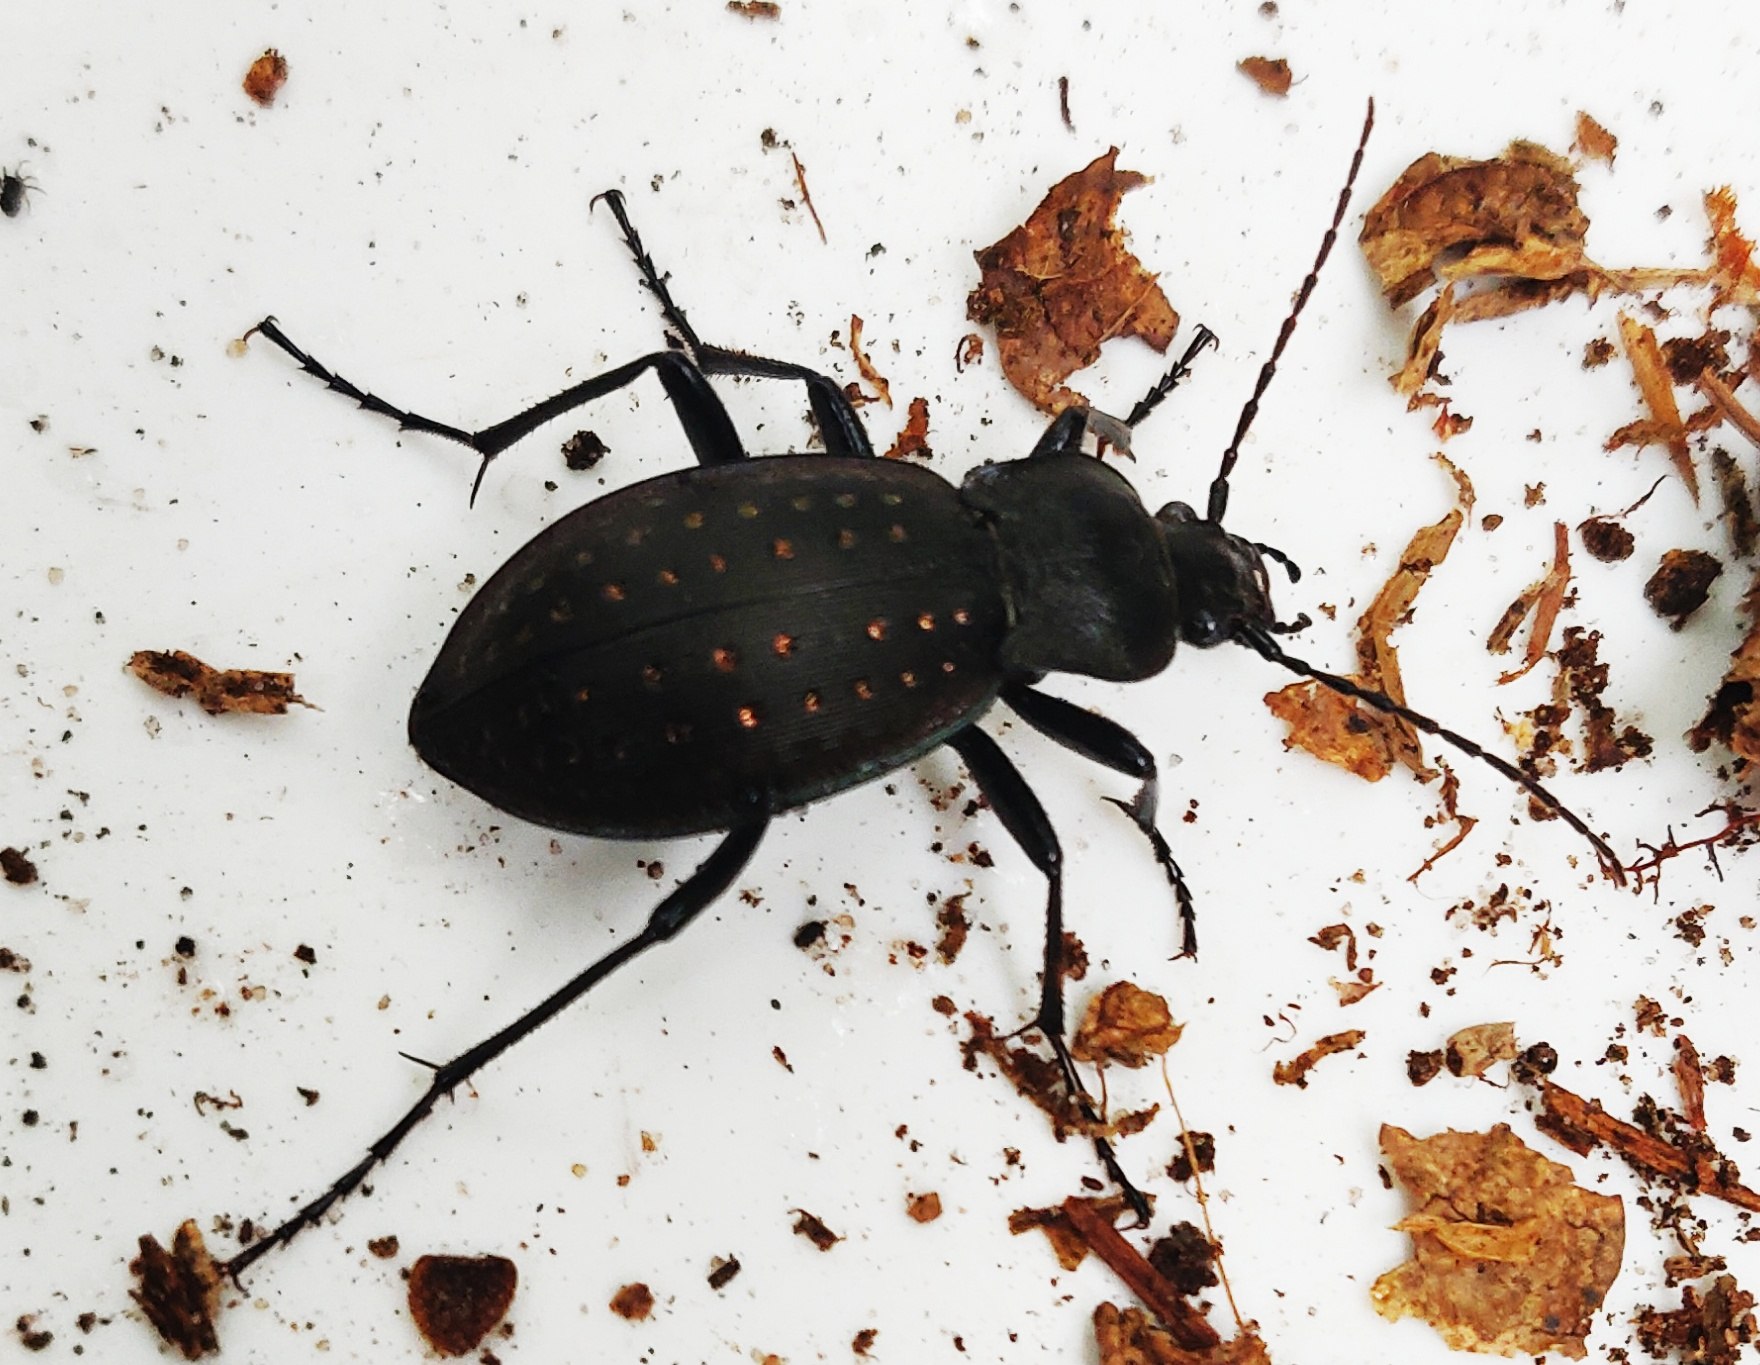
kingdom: Animalia
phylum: Arthropoda
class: Insecta
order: Coleoptera
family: Carabidae
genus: Carabus
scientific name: Carabus hortensis
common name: Guldpletløber
